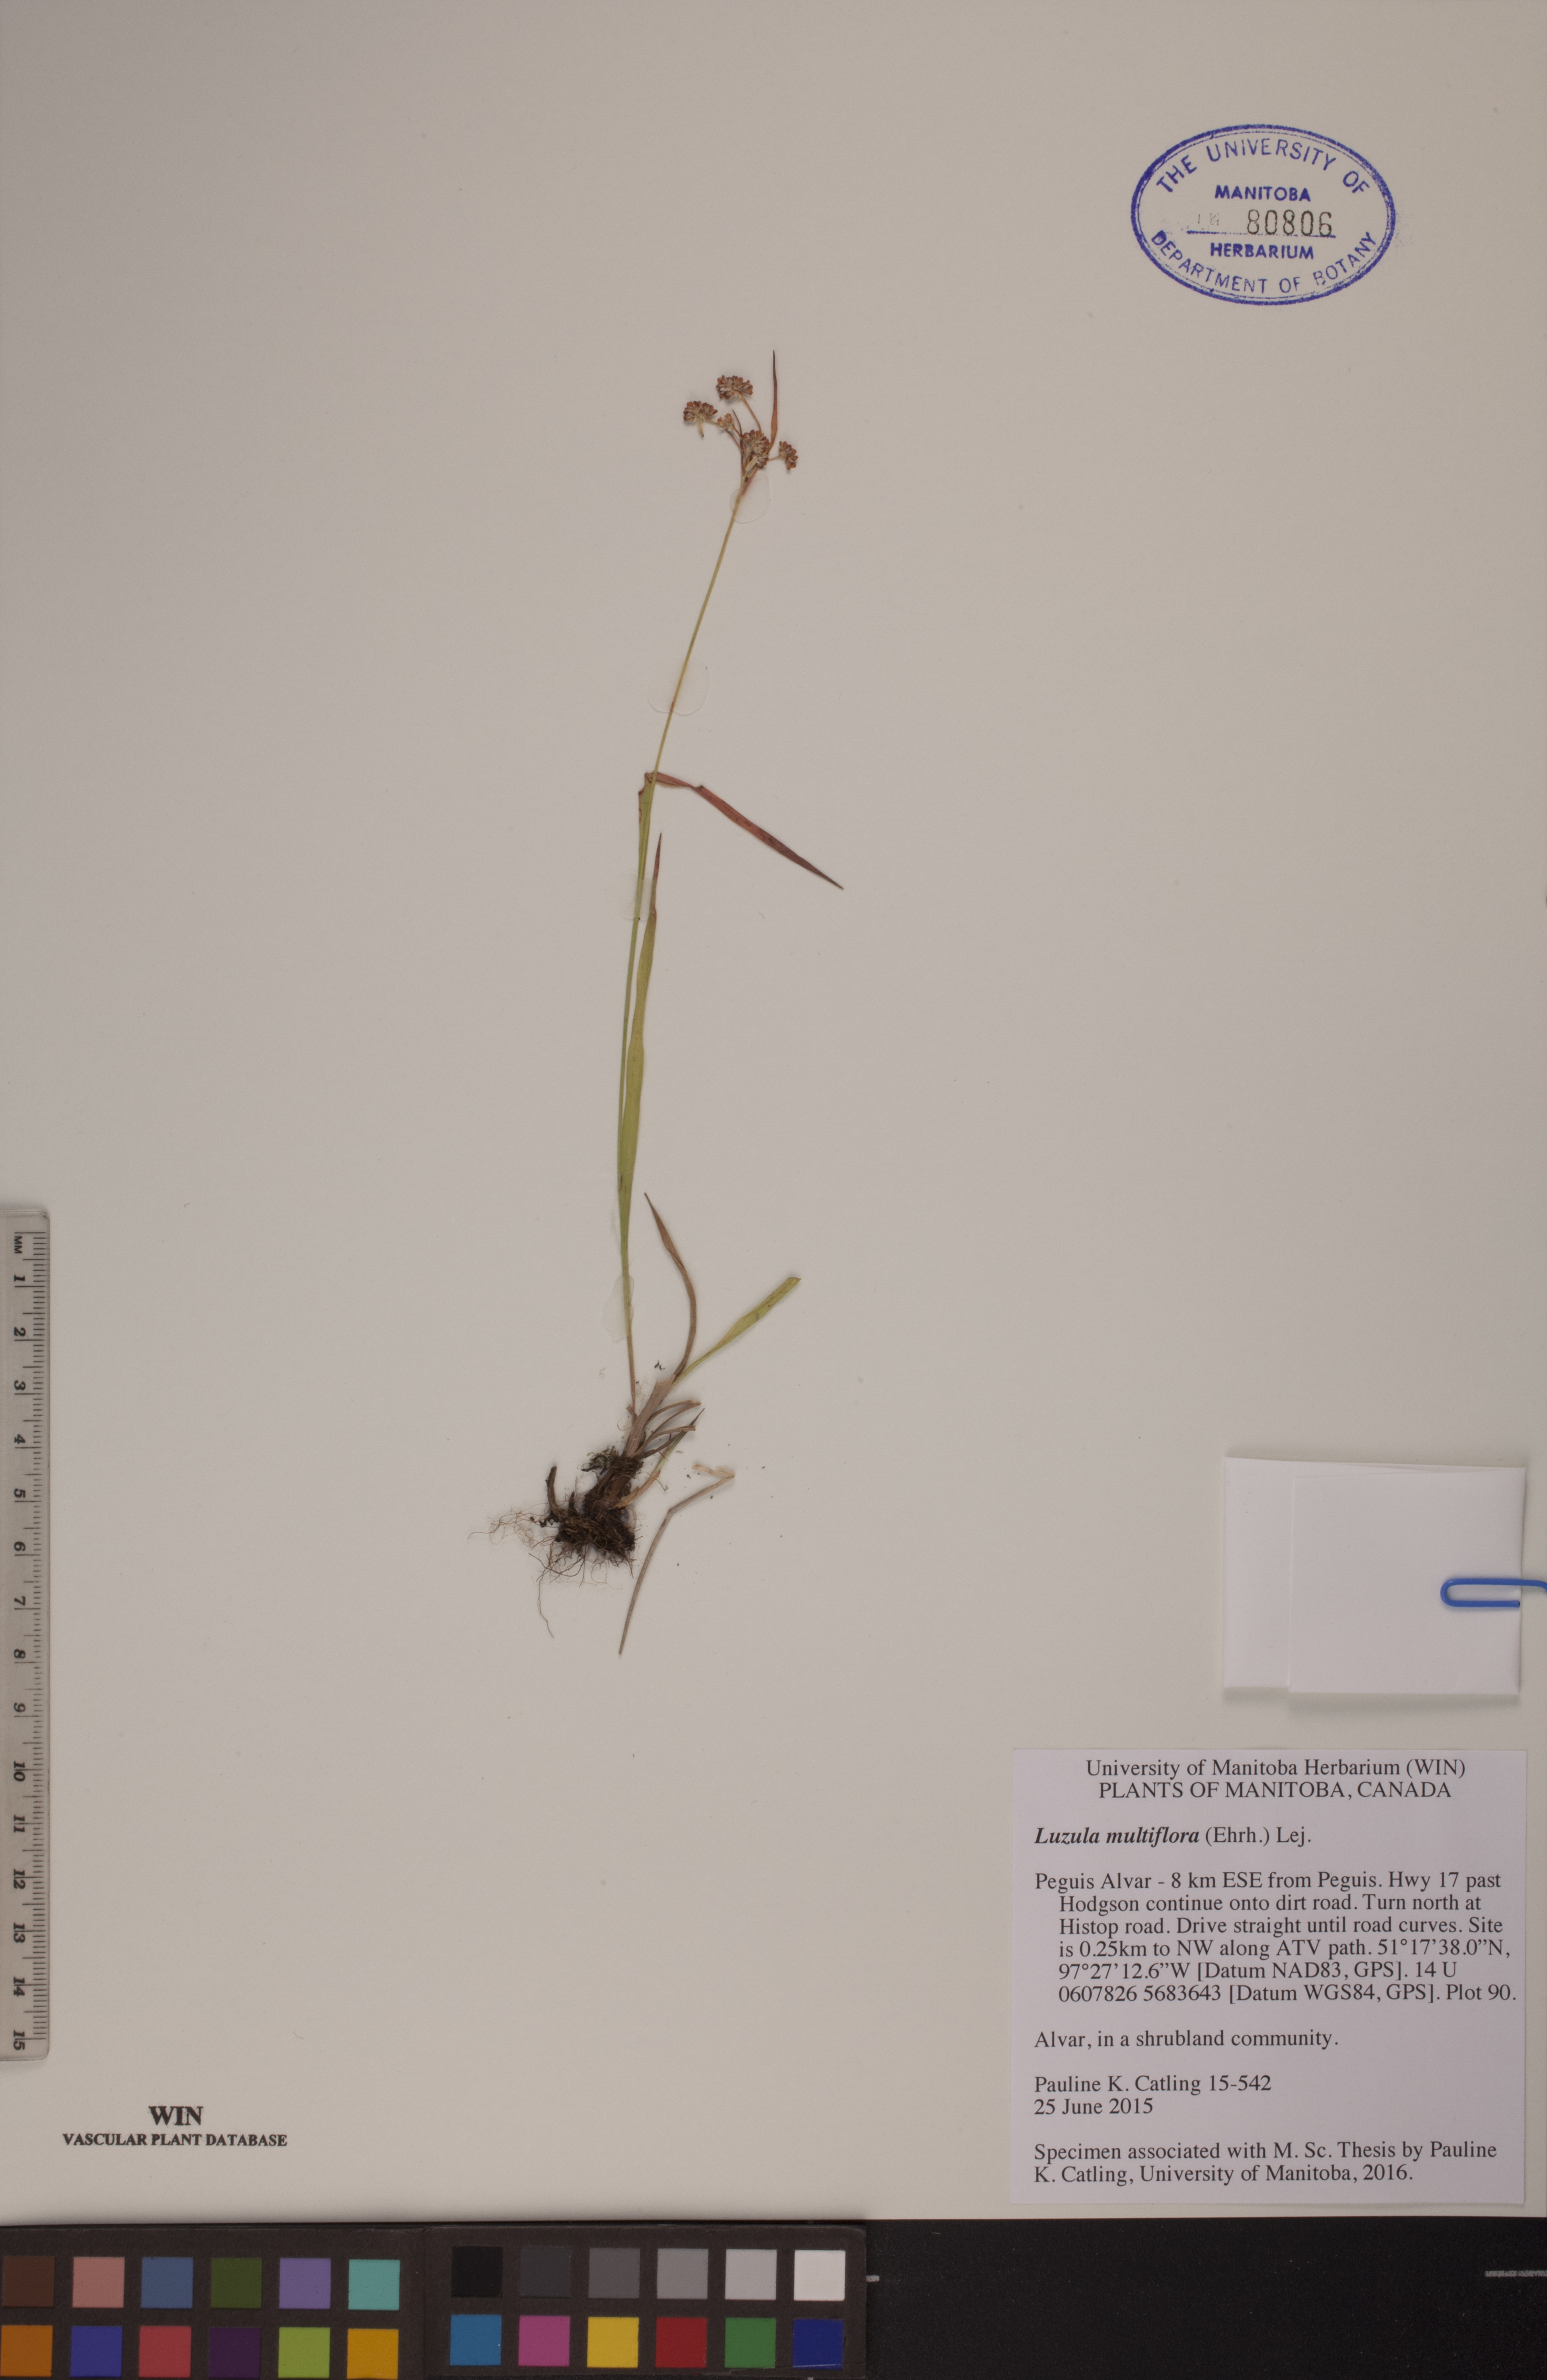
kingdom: Plantae
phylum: Tracheophyta
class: Liliopsida
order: Poales
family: Juncaceae
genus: Luzula
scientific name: Luzula multiflora
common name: Heath wood-rush
